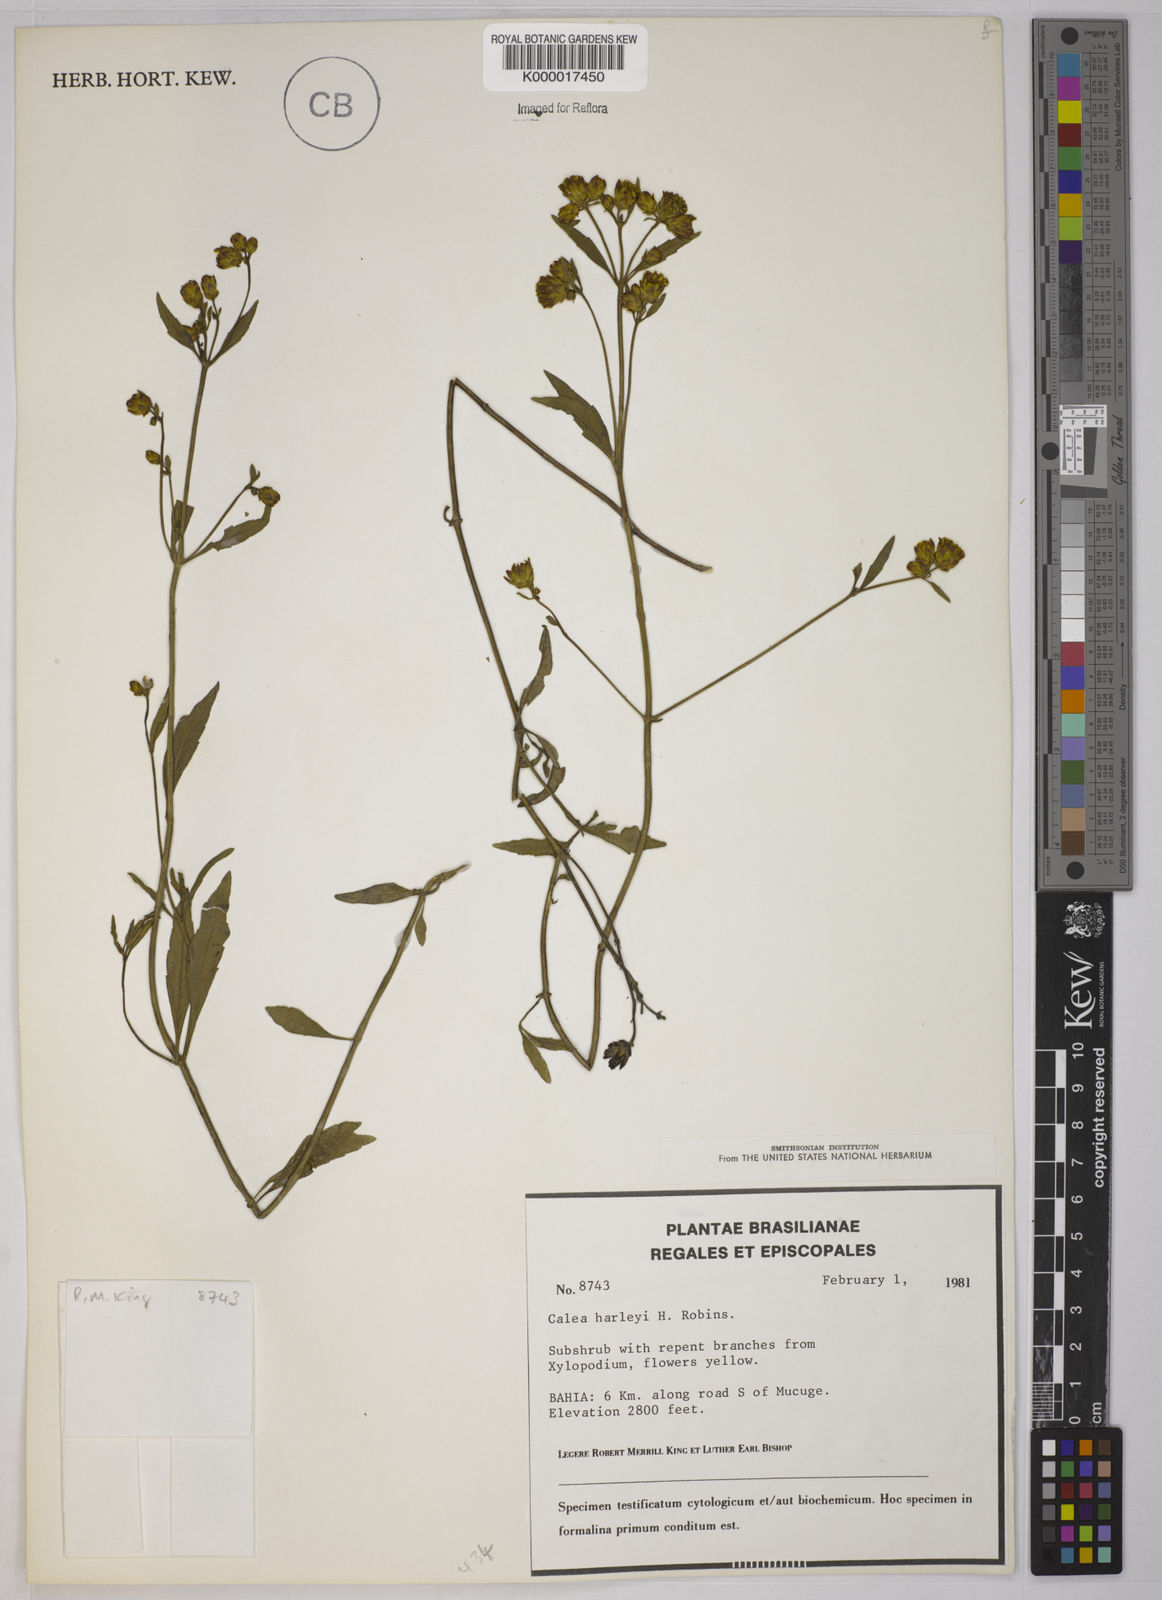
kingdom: Plantae
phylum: Tracheophyta
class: Magnoliopsida
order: Asterales
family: Asteraceae
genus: Calea
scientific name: Calea harleyi
